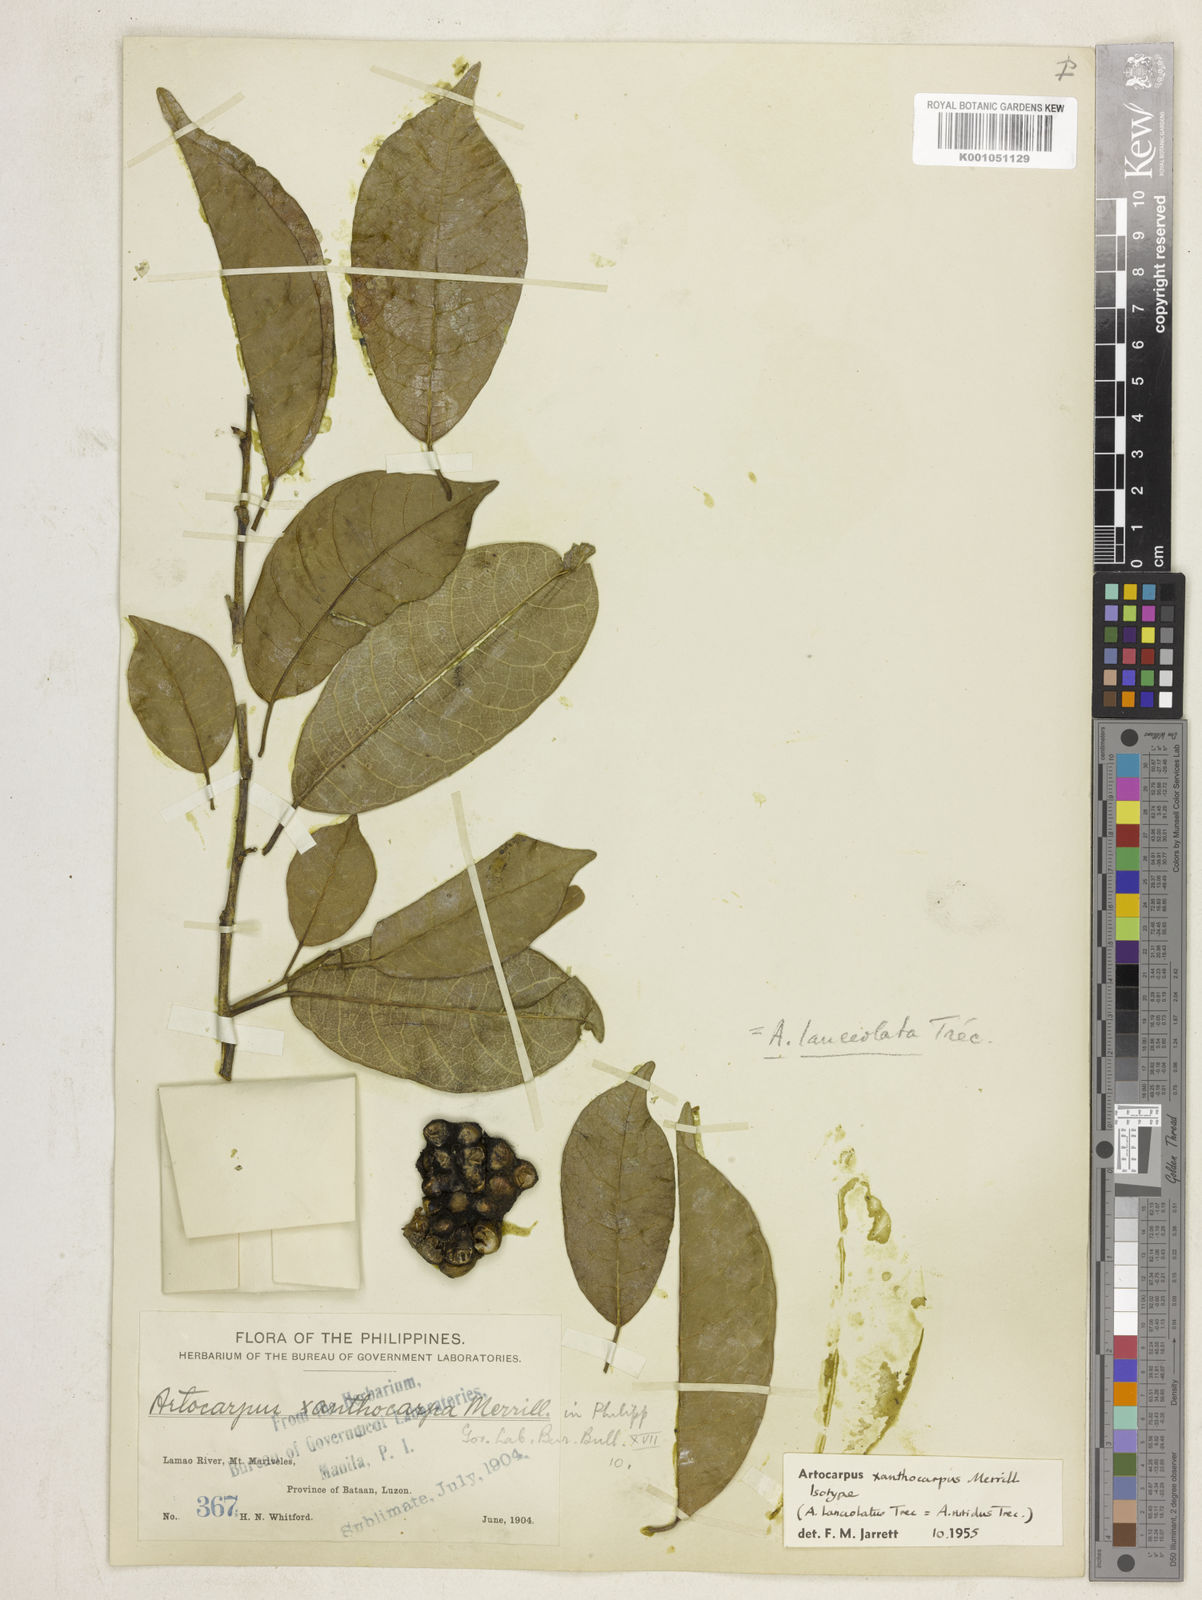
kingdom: Plantae
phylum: Tracheophyta
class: Magnoliopsida
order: Rosales
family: Moraceae
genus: Artocarpus
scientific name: Artocarpus lamellosus
